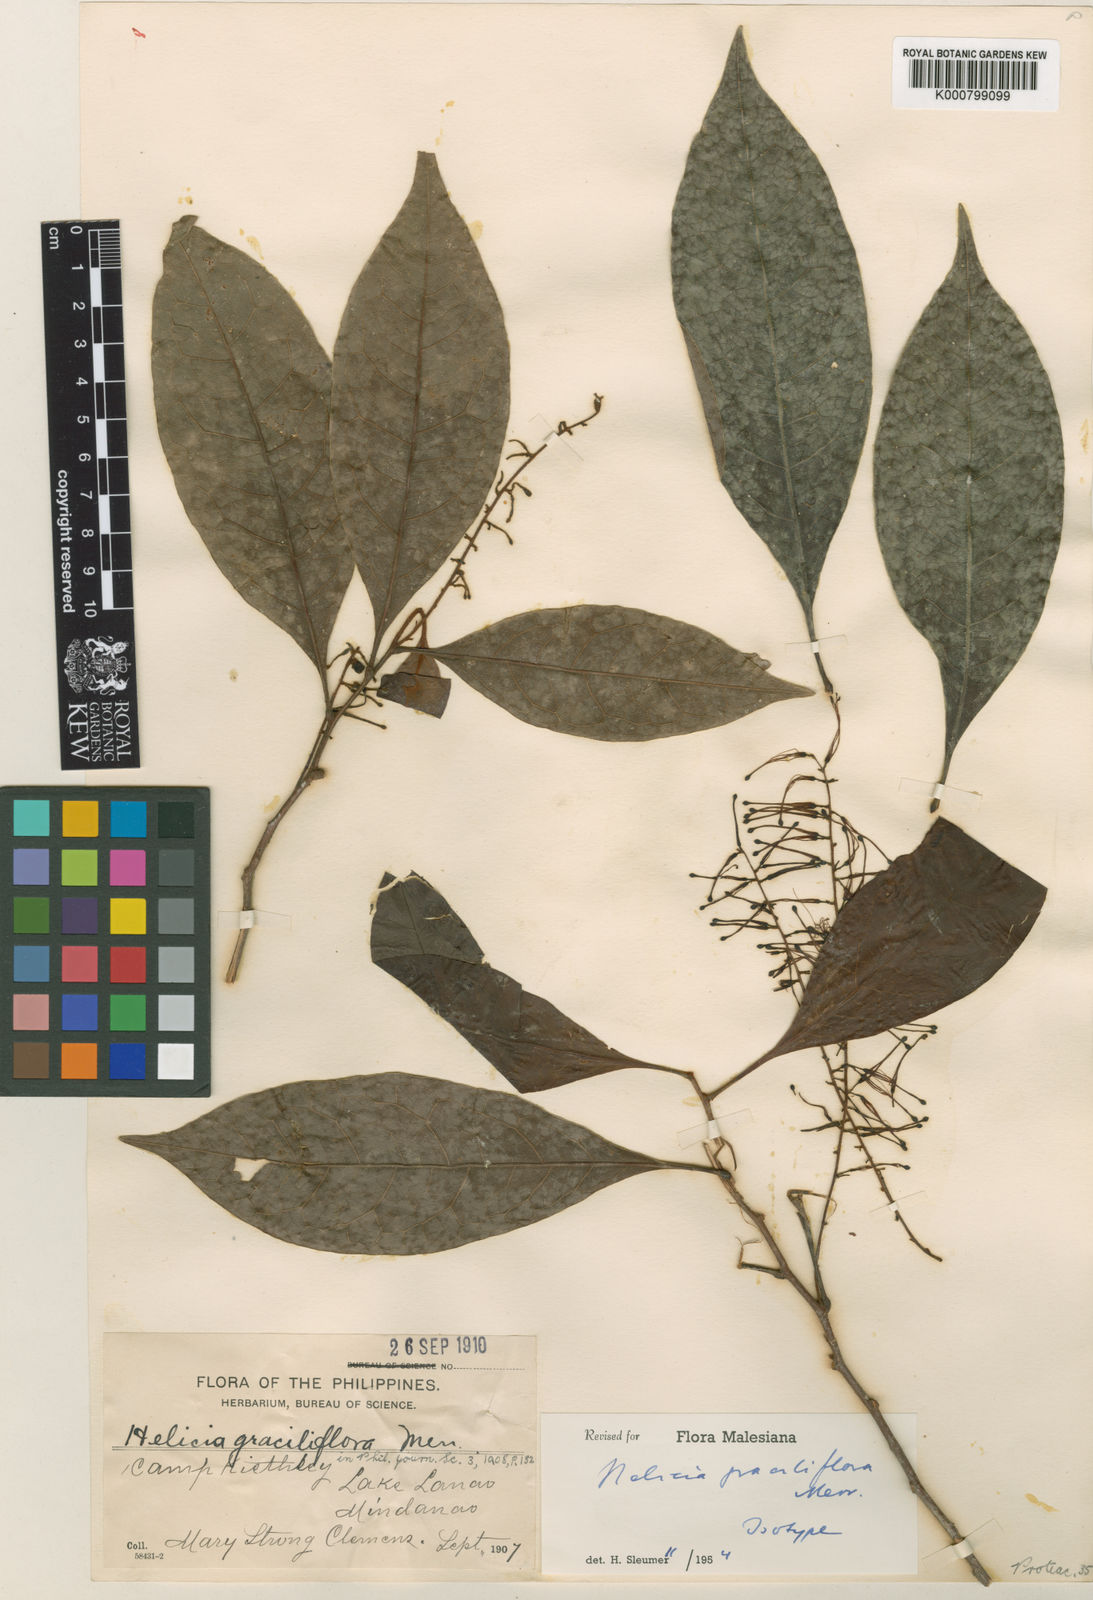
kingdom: Plantae
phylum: Tracheophyta
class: Magnoliopsida
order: Proteales
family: Proteaceae
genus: Helicia
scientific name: Helicia graciliflora
